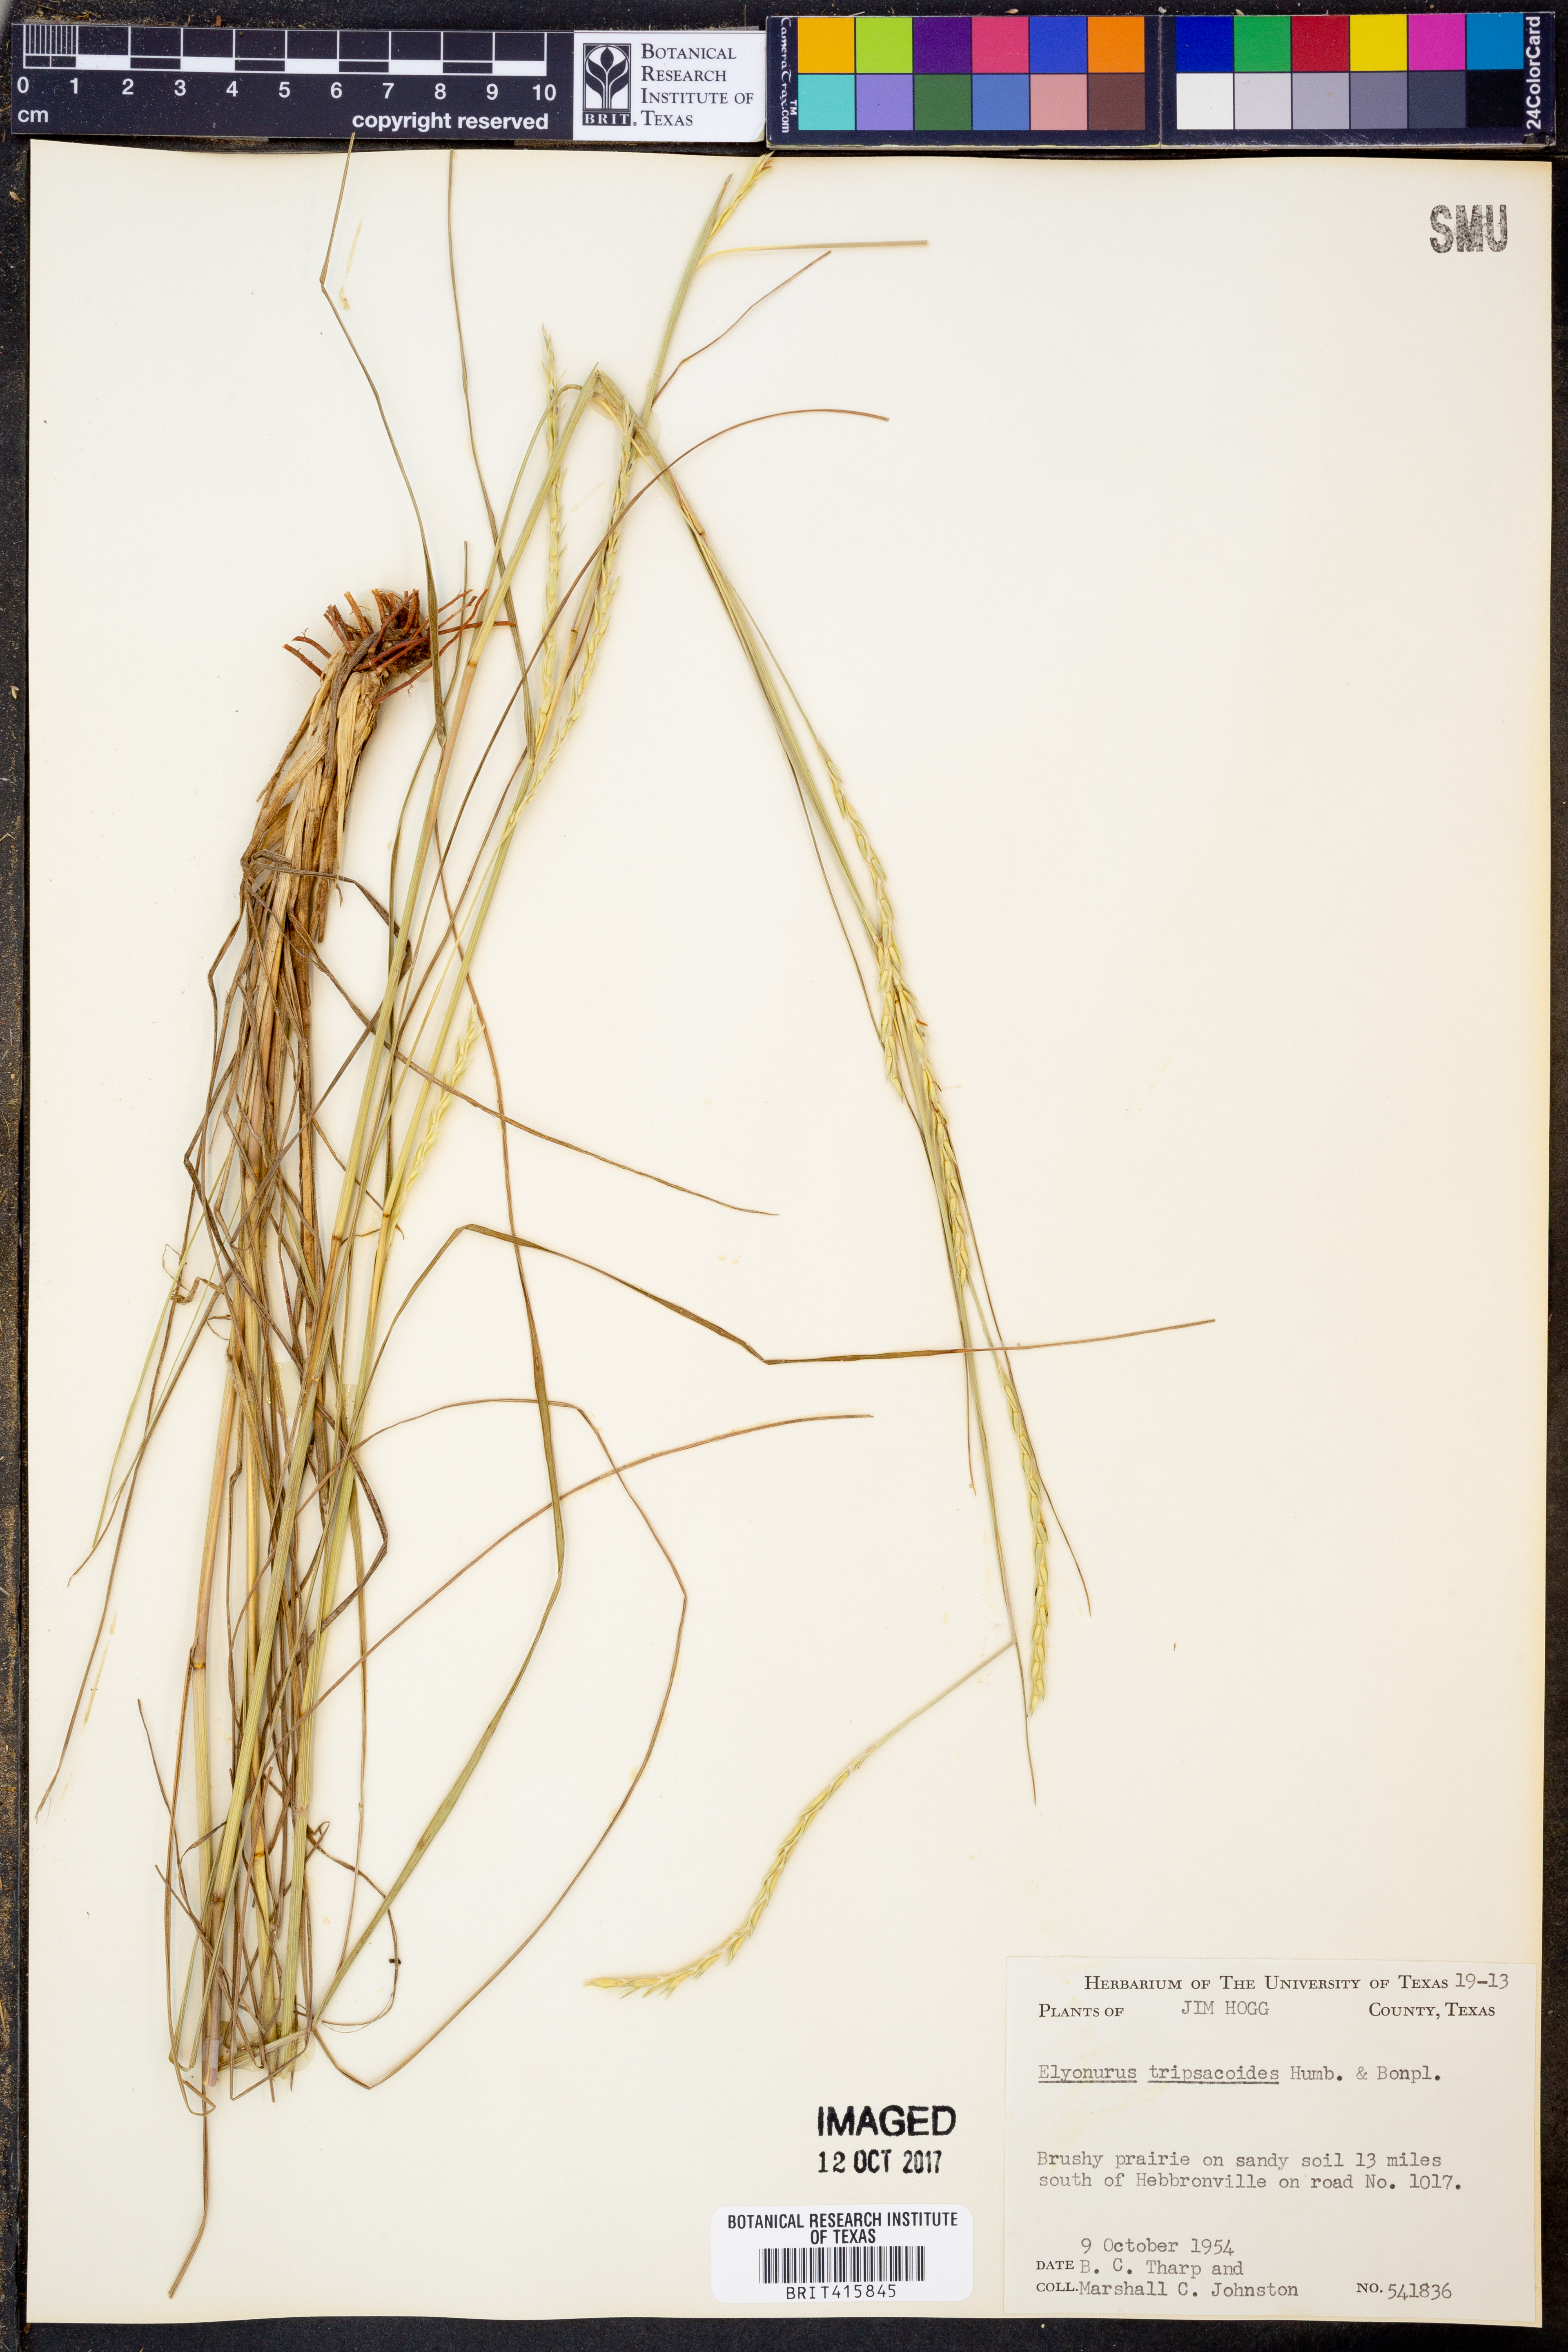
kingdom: Plantae
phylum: Tracheophyta
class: Liliopsida
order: Poales
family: Poaceae
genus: Elionurus
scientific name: Elionurus tripsacoides
